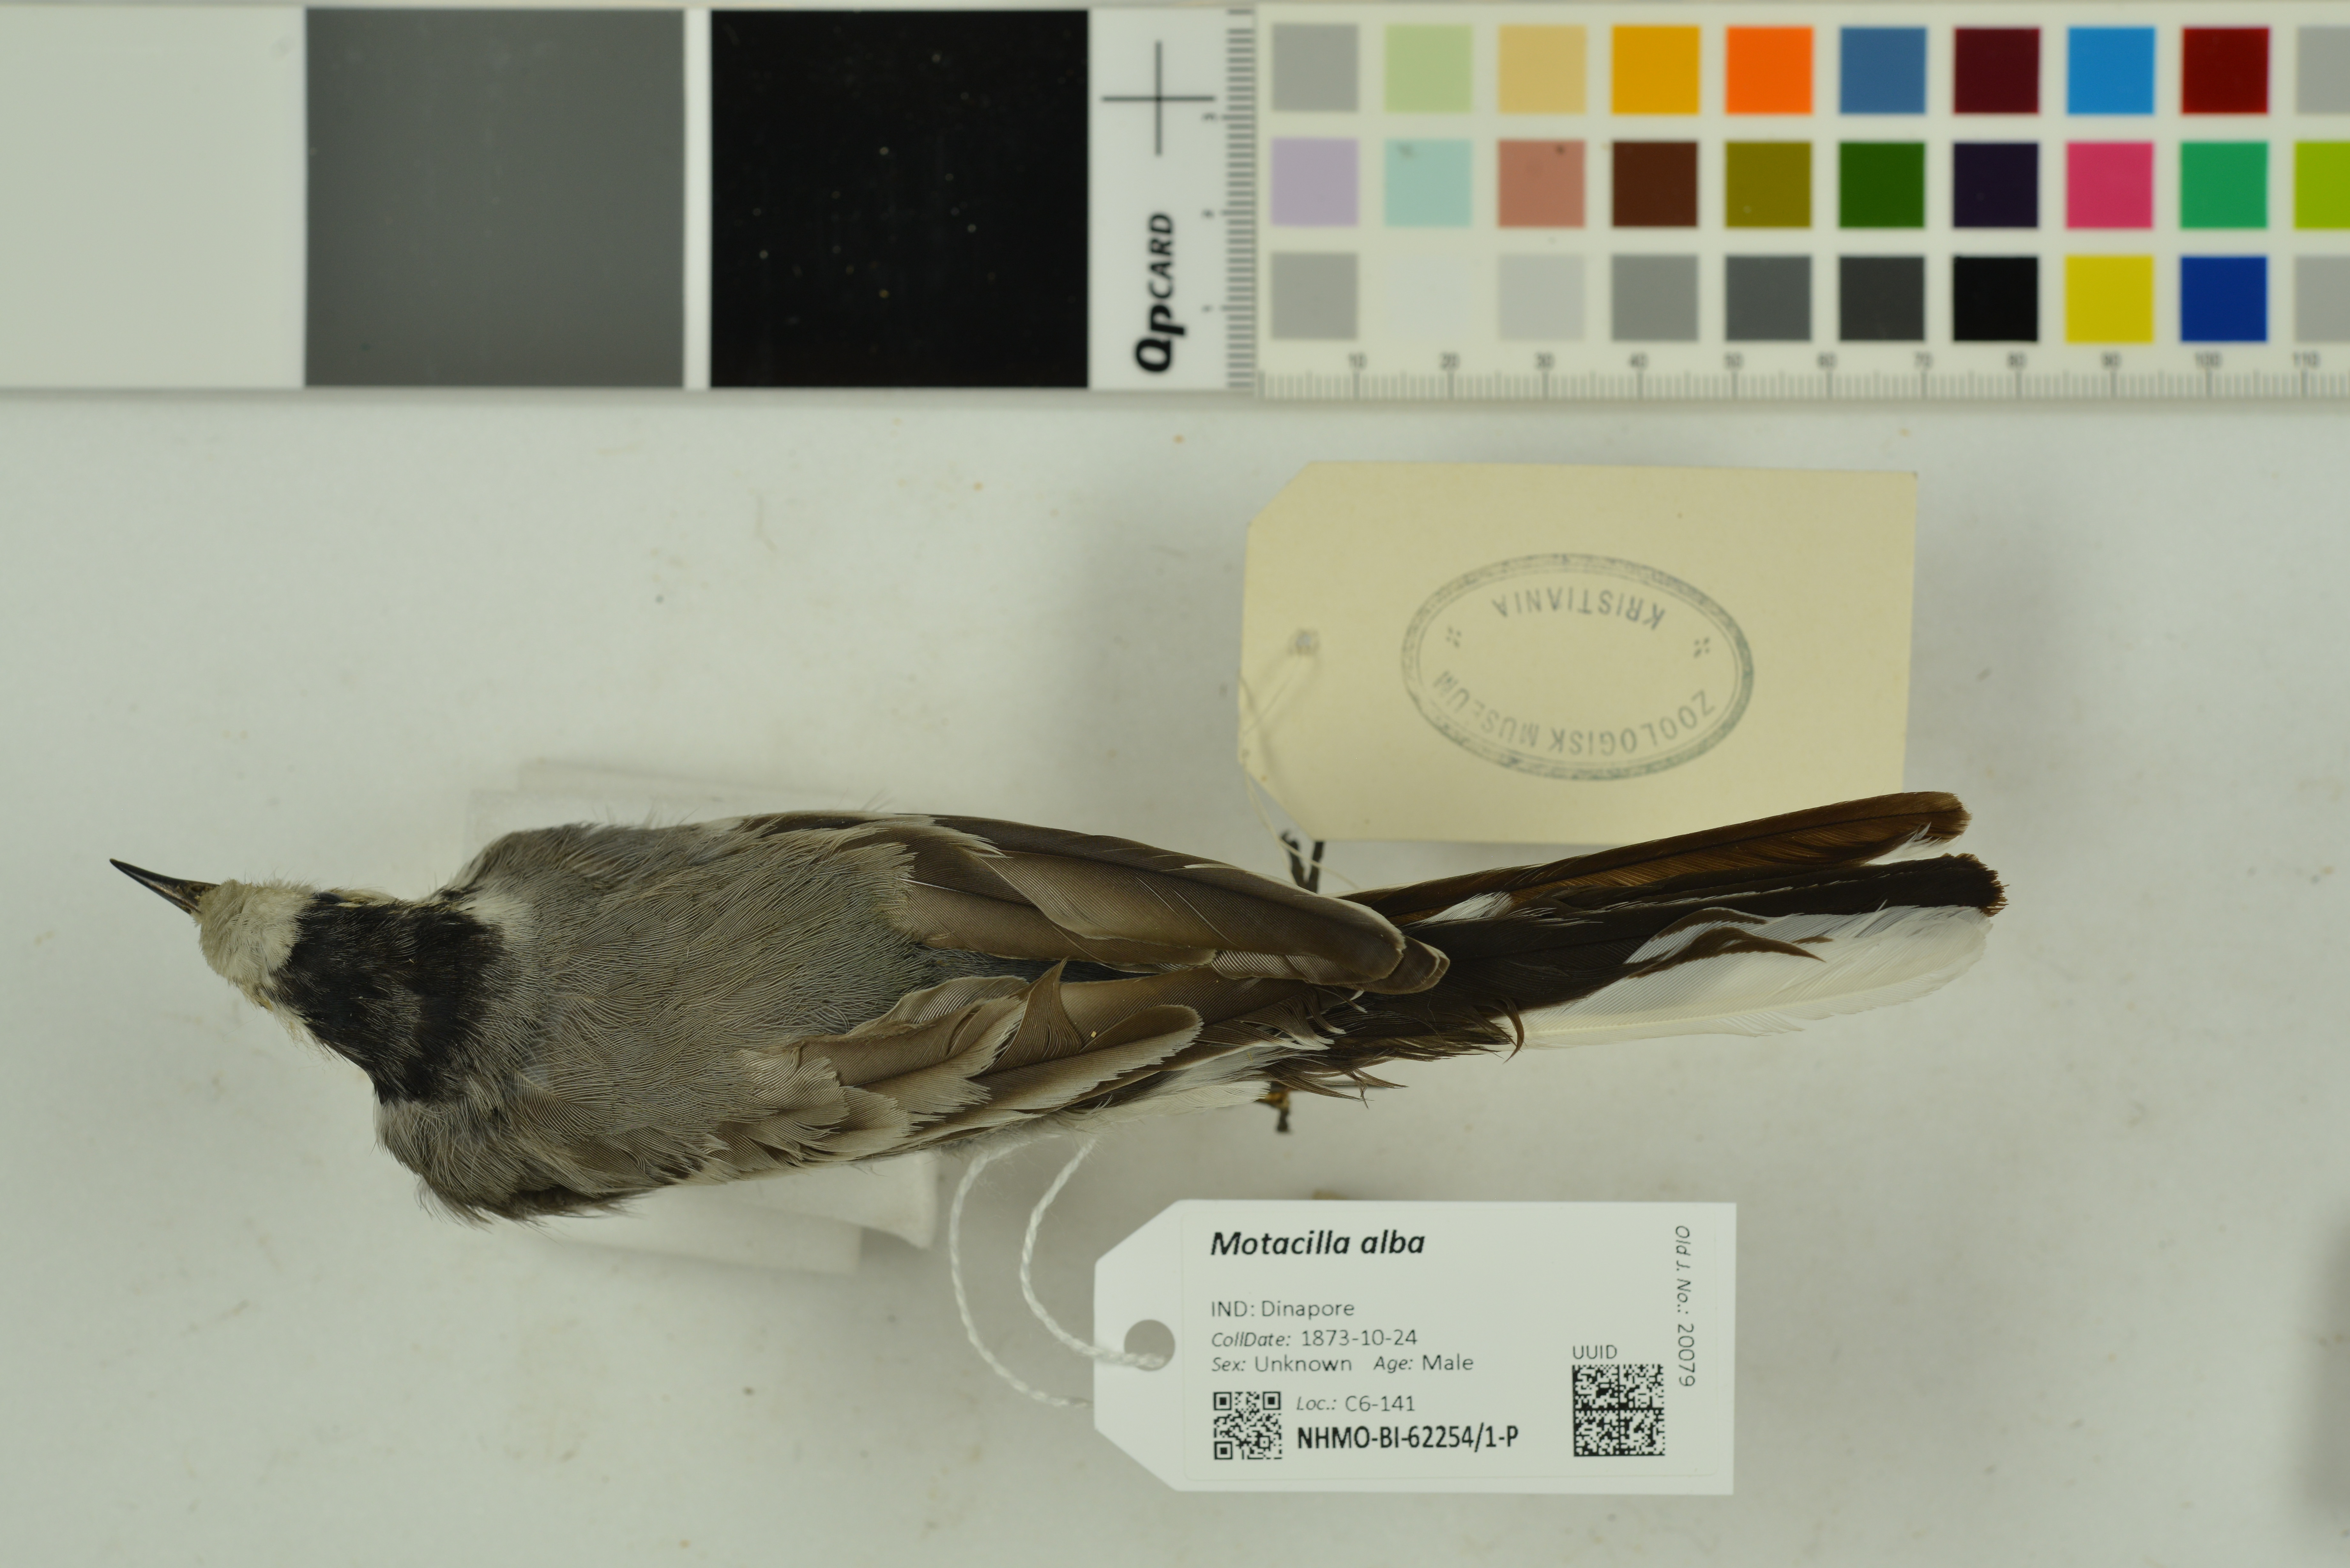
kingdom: Animalia
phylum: Chordata
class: Aves
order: Passeriformes
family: Motacillidae
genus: Motacilla
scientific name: Motacilla alba
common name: White wagtail
